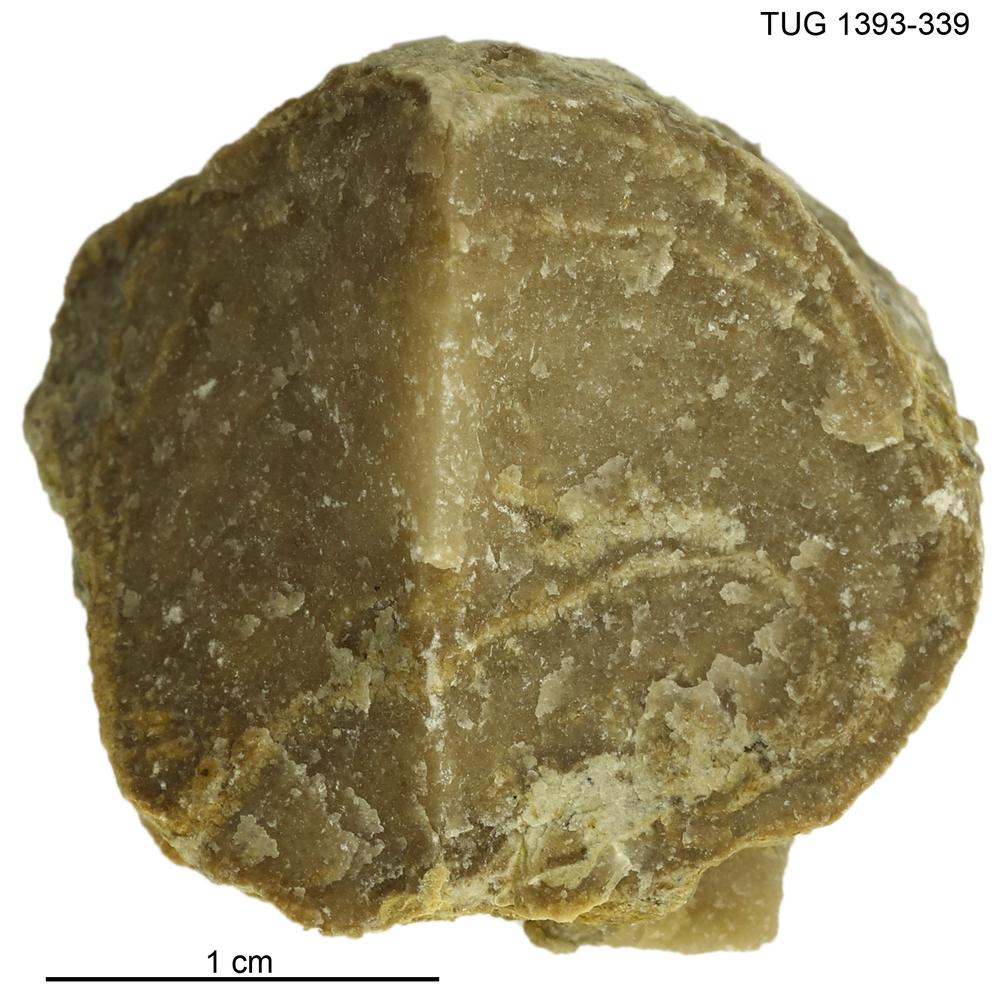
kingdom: Animalia
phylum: Bryozoa
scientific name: Bryozoa
